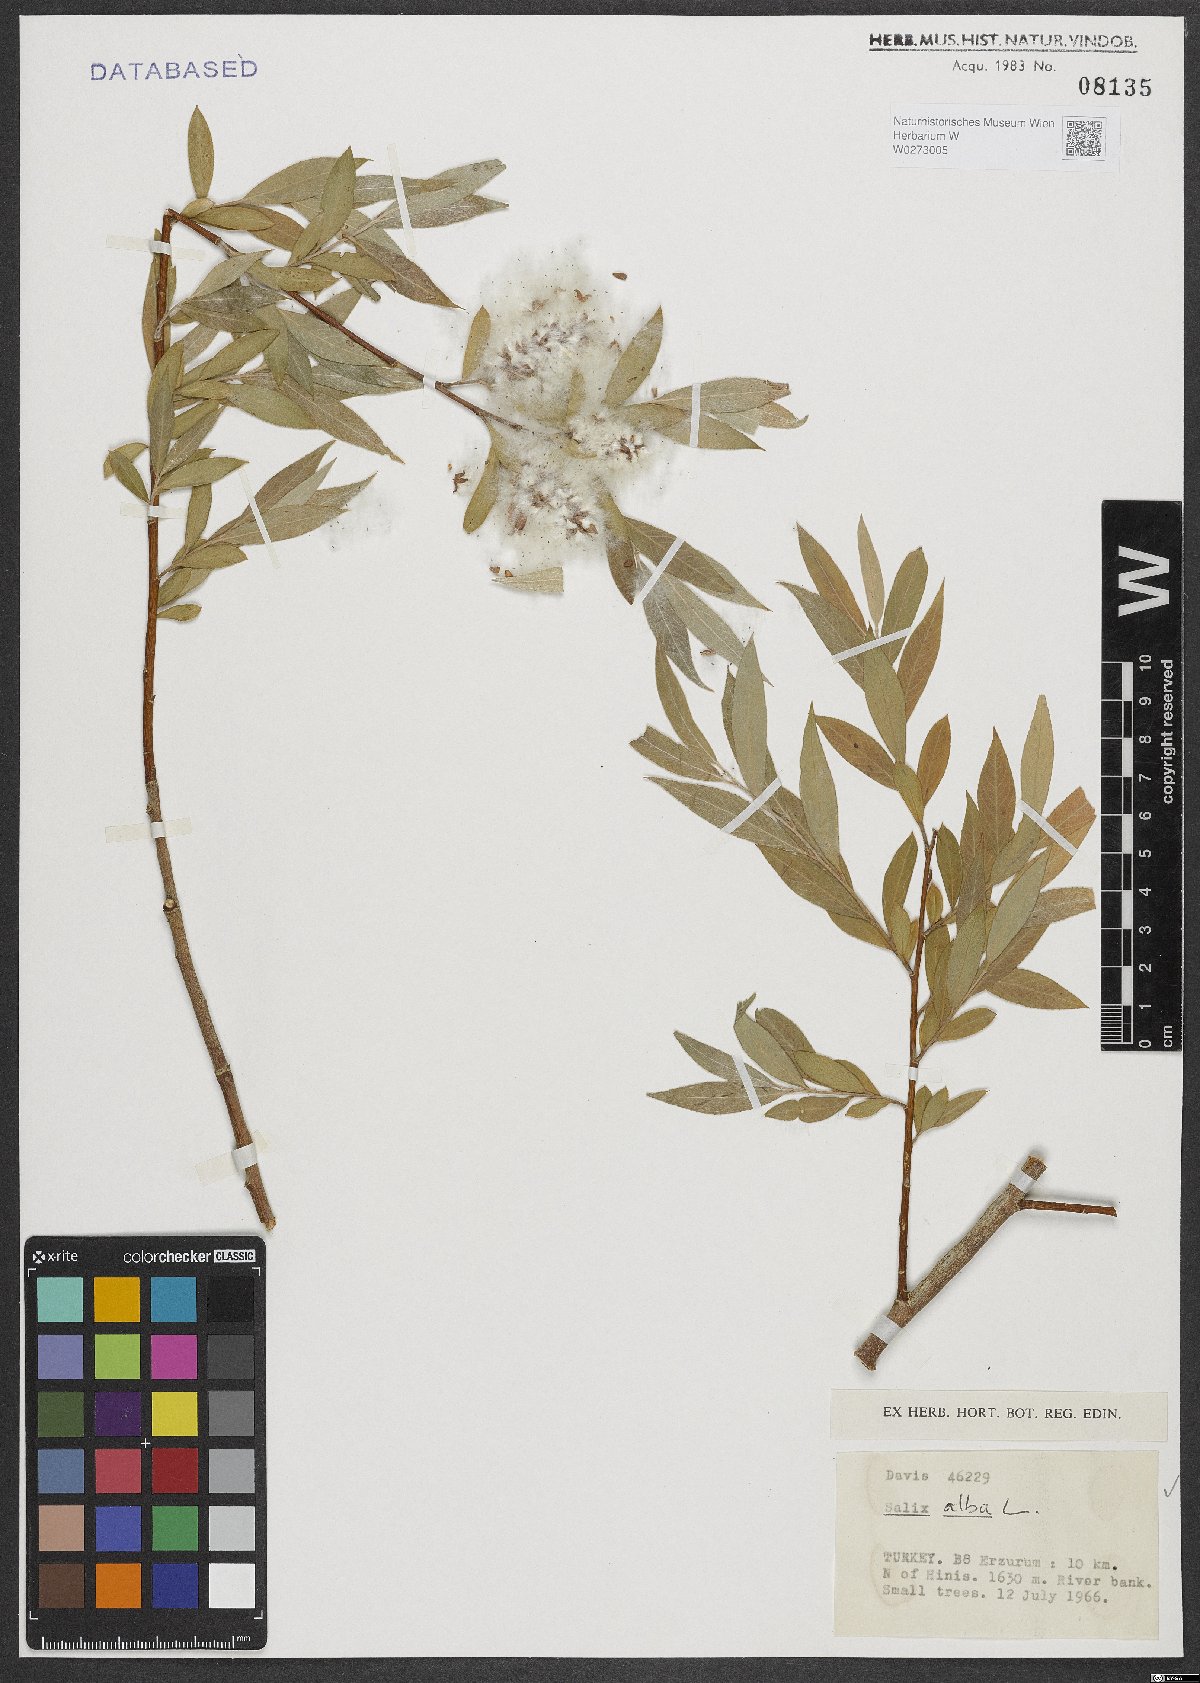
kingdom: Plantae
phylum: Tracheophyta
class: Magnoliopsida
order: Malpighiales
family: Salicaceae
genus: Salix
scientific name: Salix alba
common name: White willow
